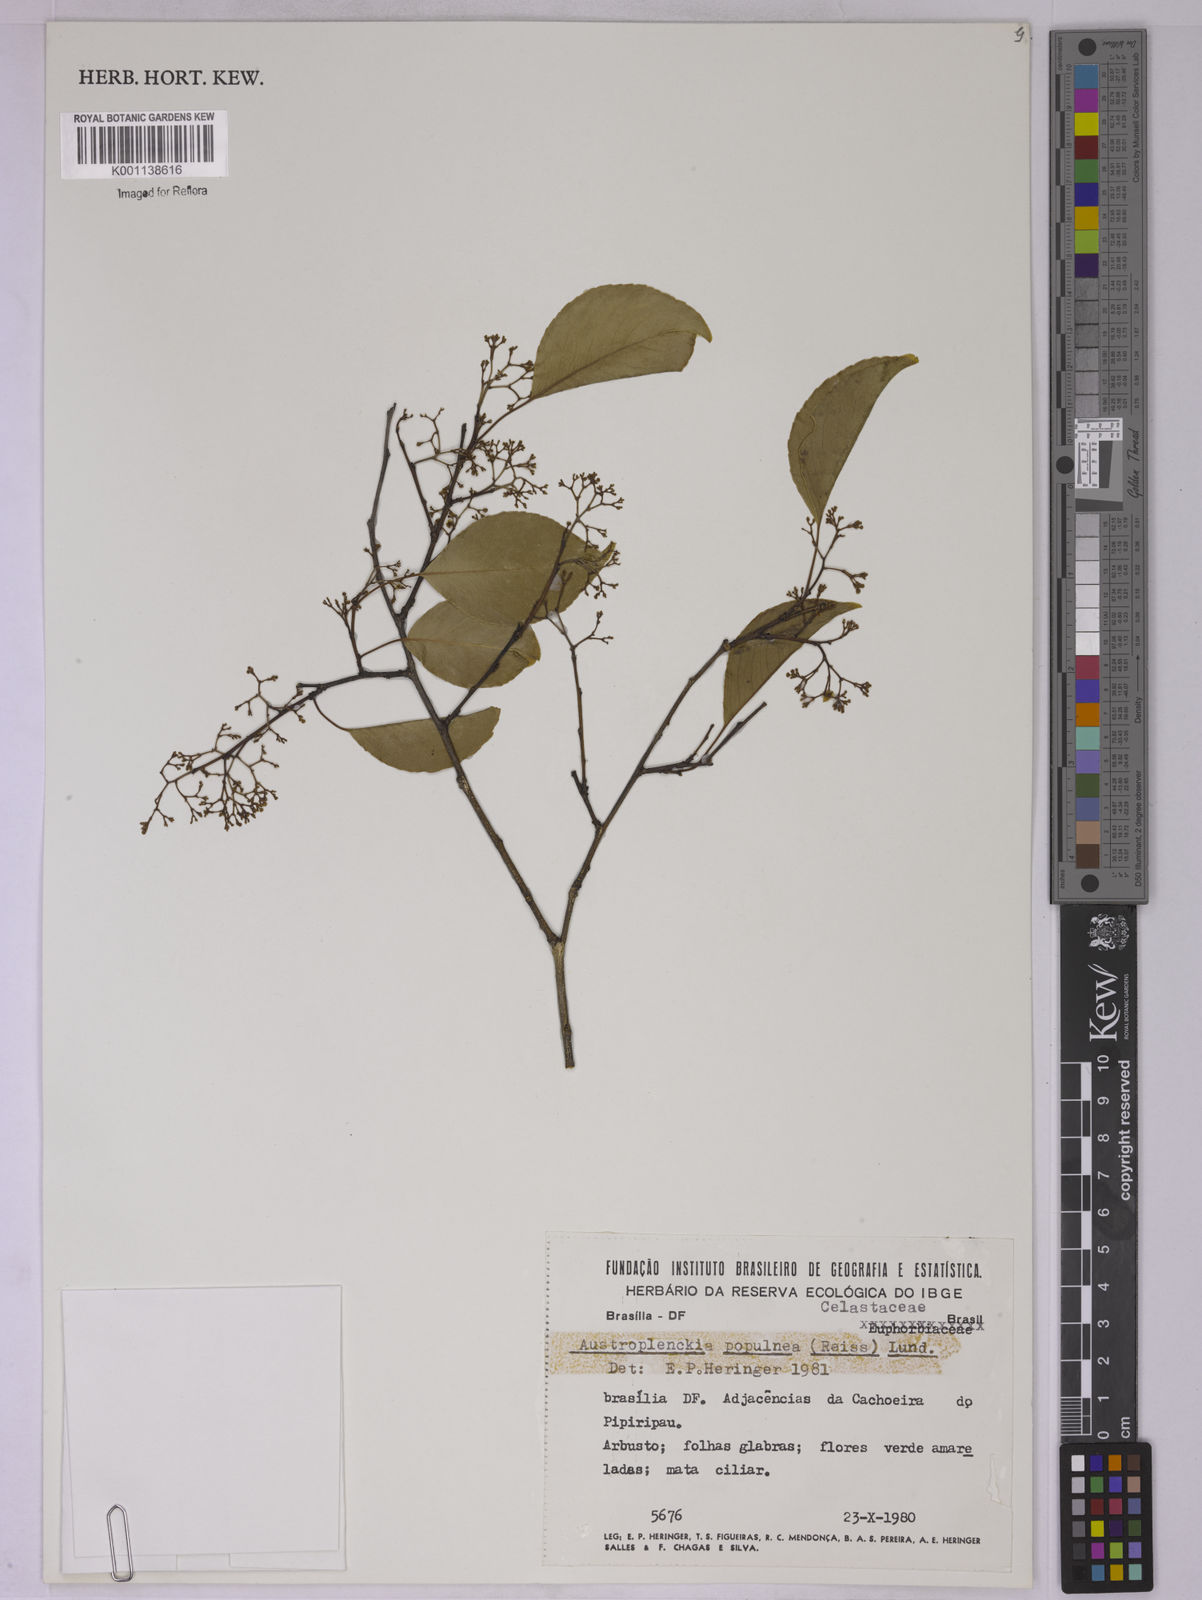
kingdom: Plantae
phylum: Tracheophyta
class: Magnoliopsida
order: Celastrales
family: Celastraceae
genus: Plenckia
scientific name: Plenckia populnea
